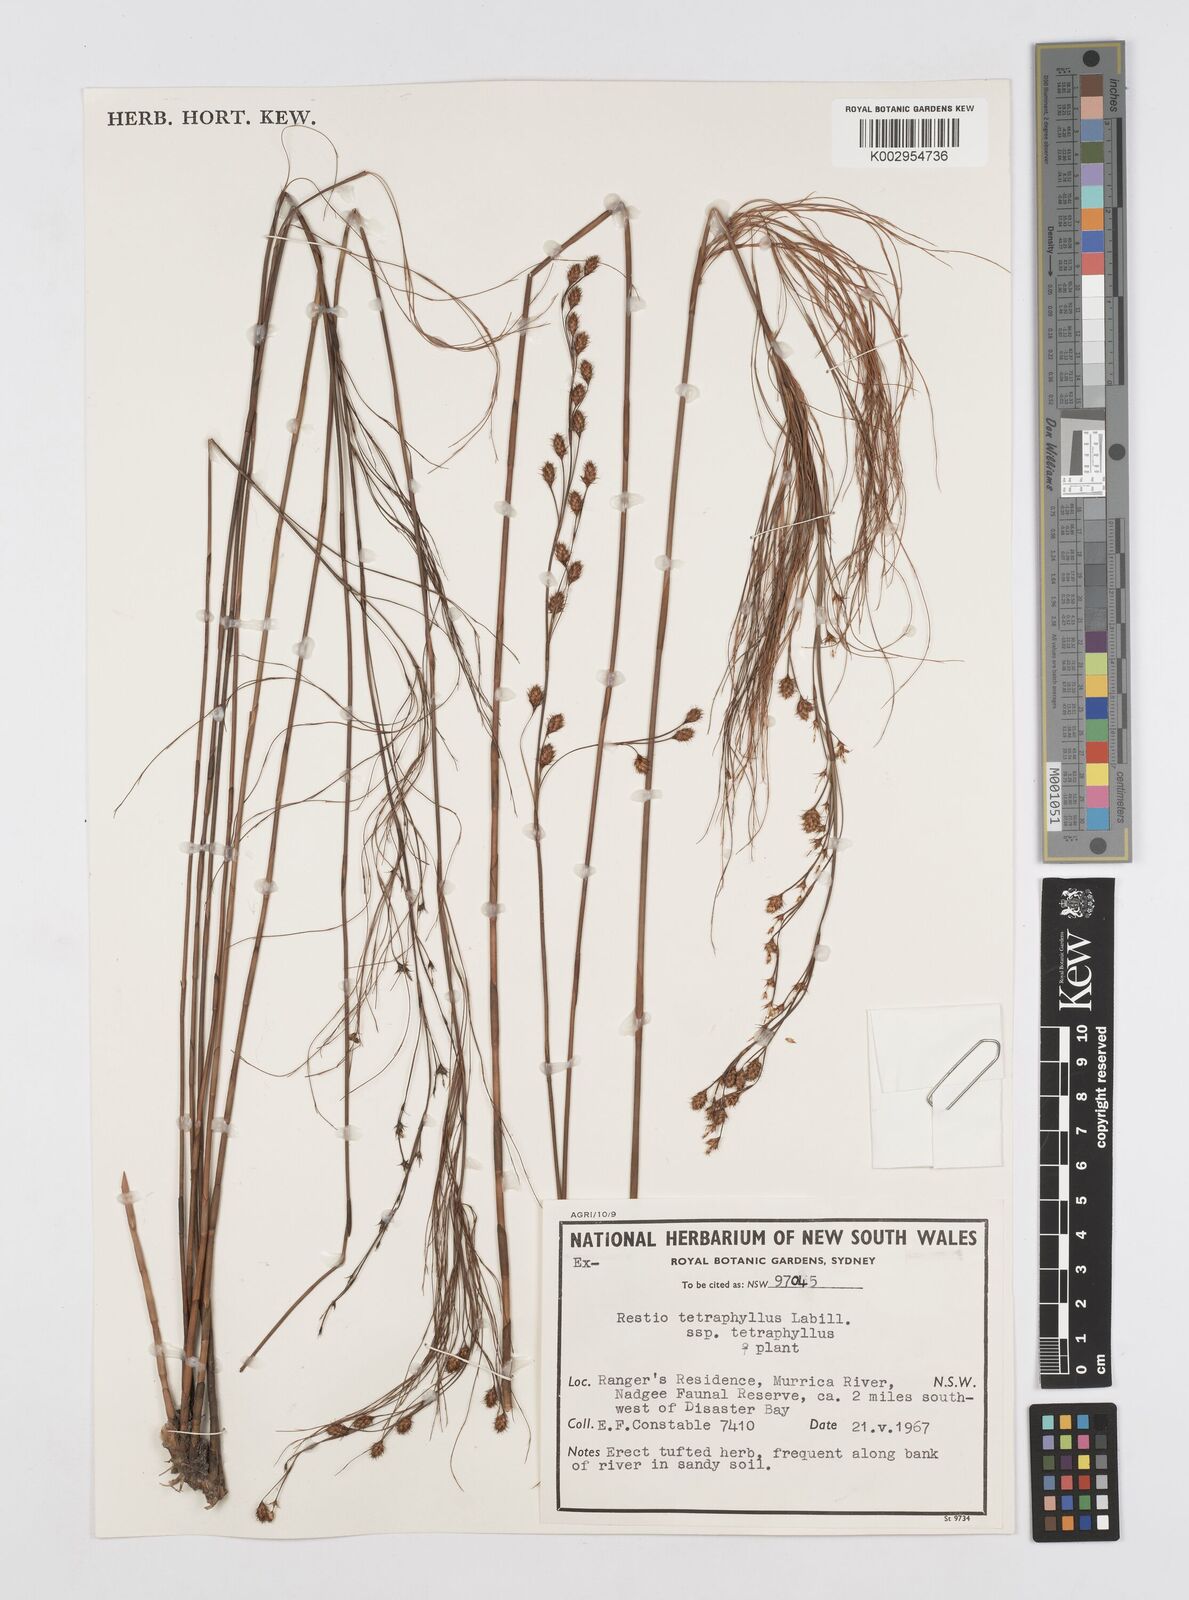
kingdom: Plantae
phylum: Tracheophyta
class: Liliopsida
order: Poales
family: Restionaceae
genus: Baloskion
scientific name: Baloskion tetraphyllum
